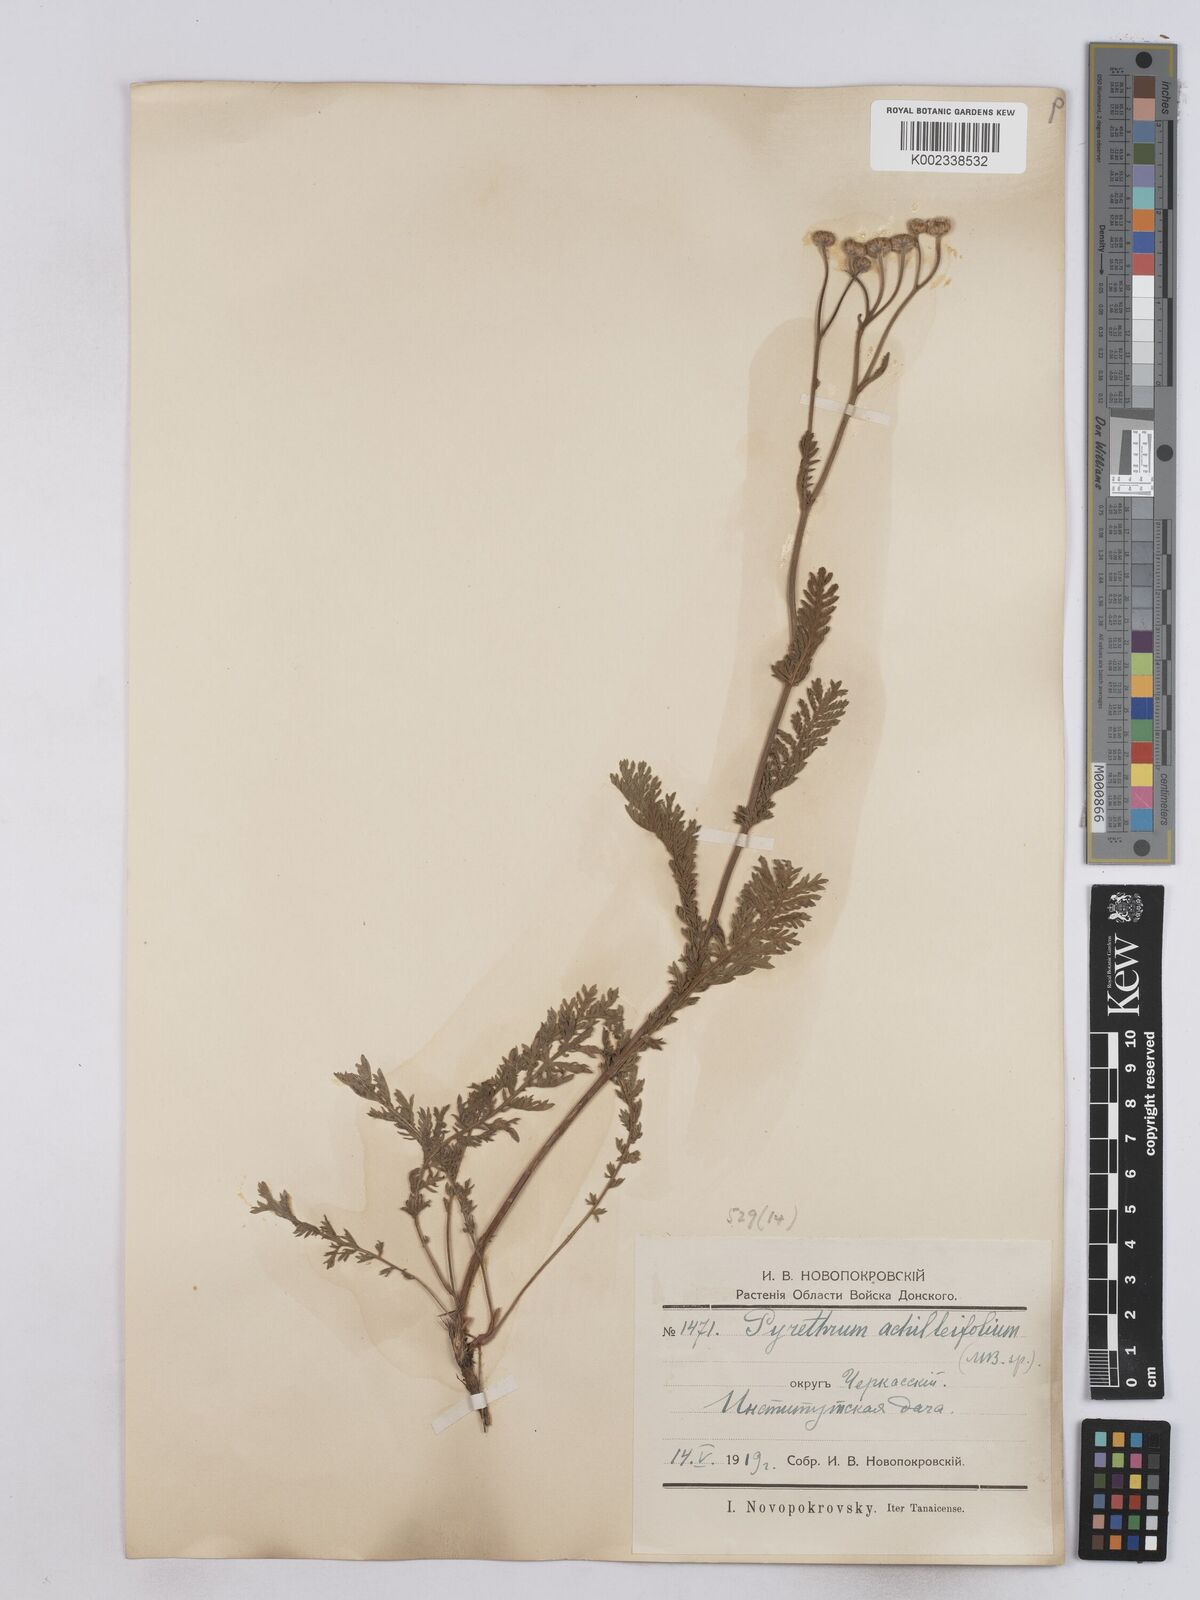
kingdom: Plantae
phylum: Tracheophyta
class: Magnoliopsida
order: Asterales
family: Asteraceae
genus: Tanacetum
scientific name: Tanacetum achilleifolium
